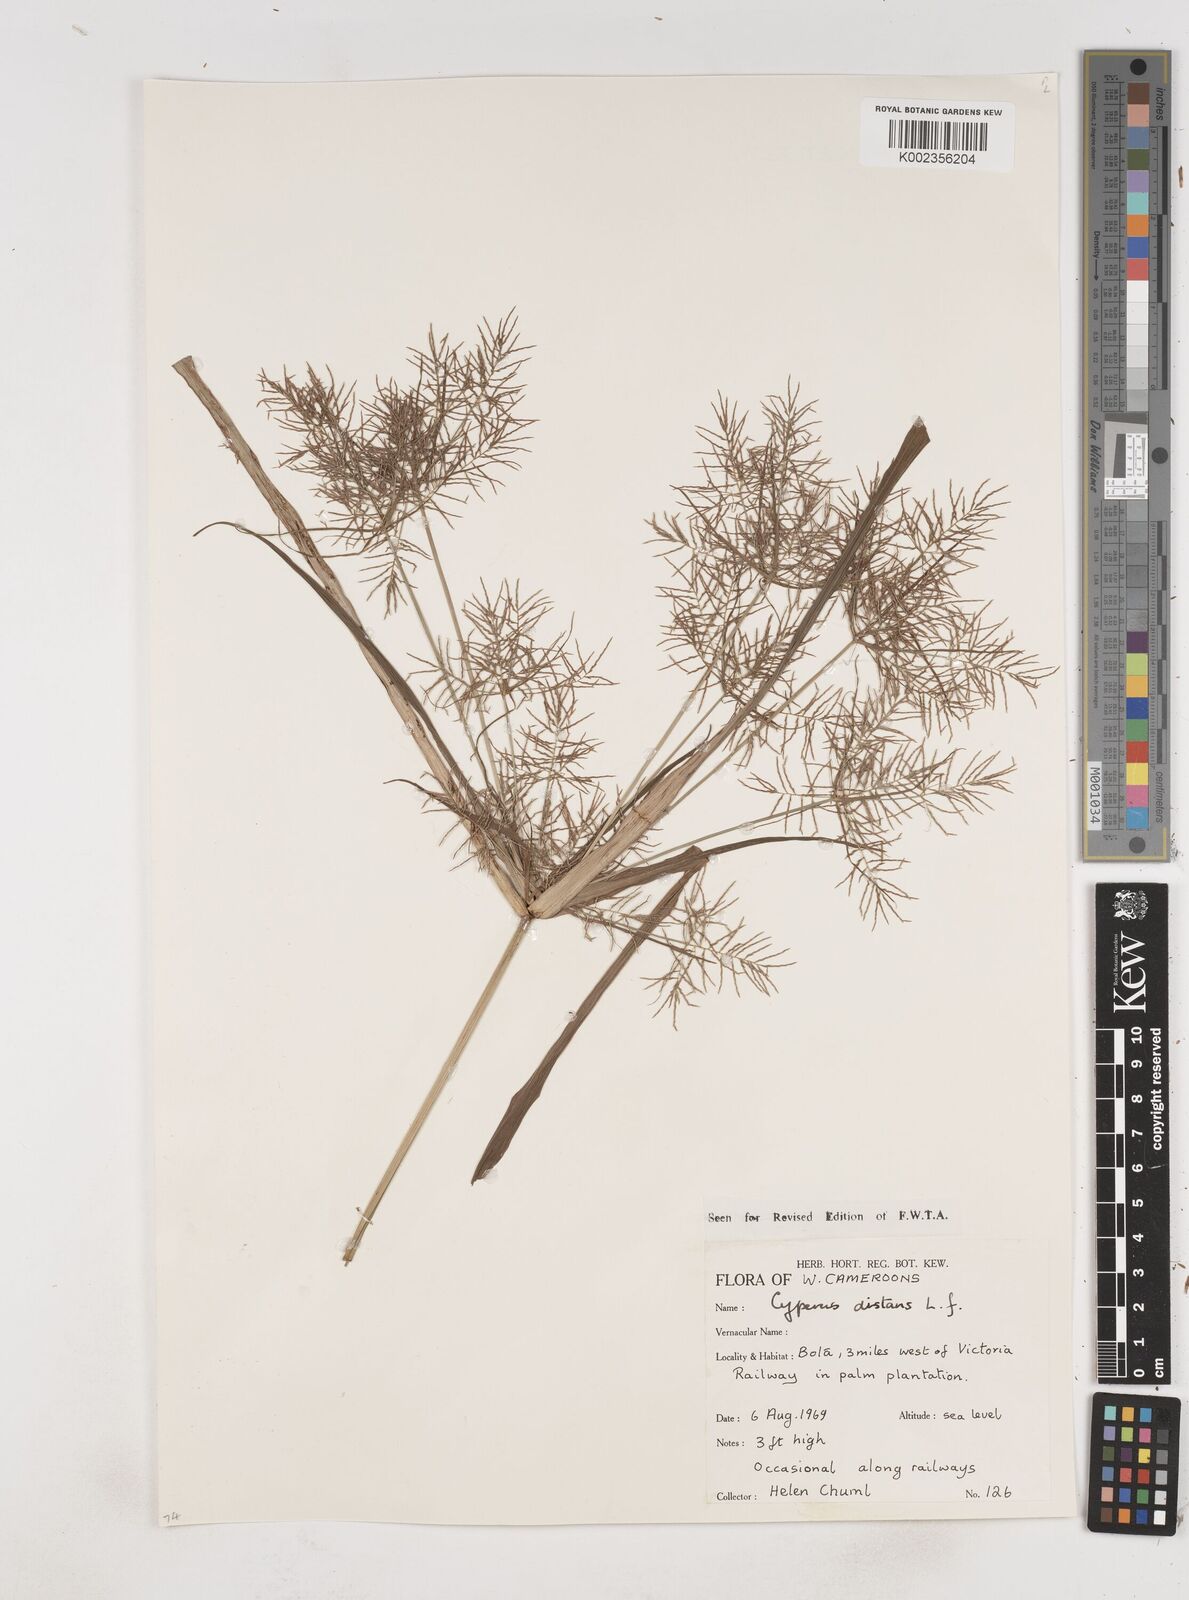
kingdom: Plantae
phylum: Tracheophyta
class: Liliopsida
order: Poales
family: Cyperaceae
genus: Cyperus
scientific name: Cyperus distans
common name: Slender cyperus
